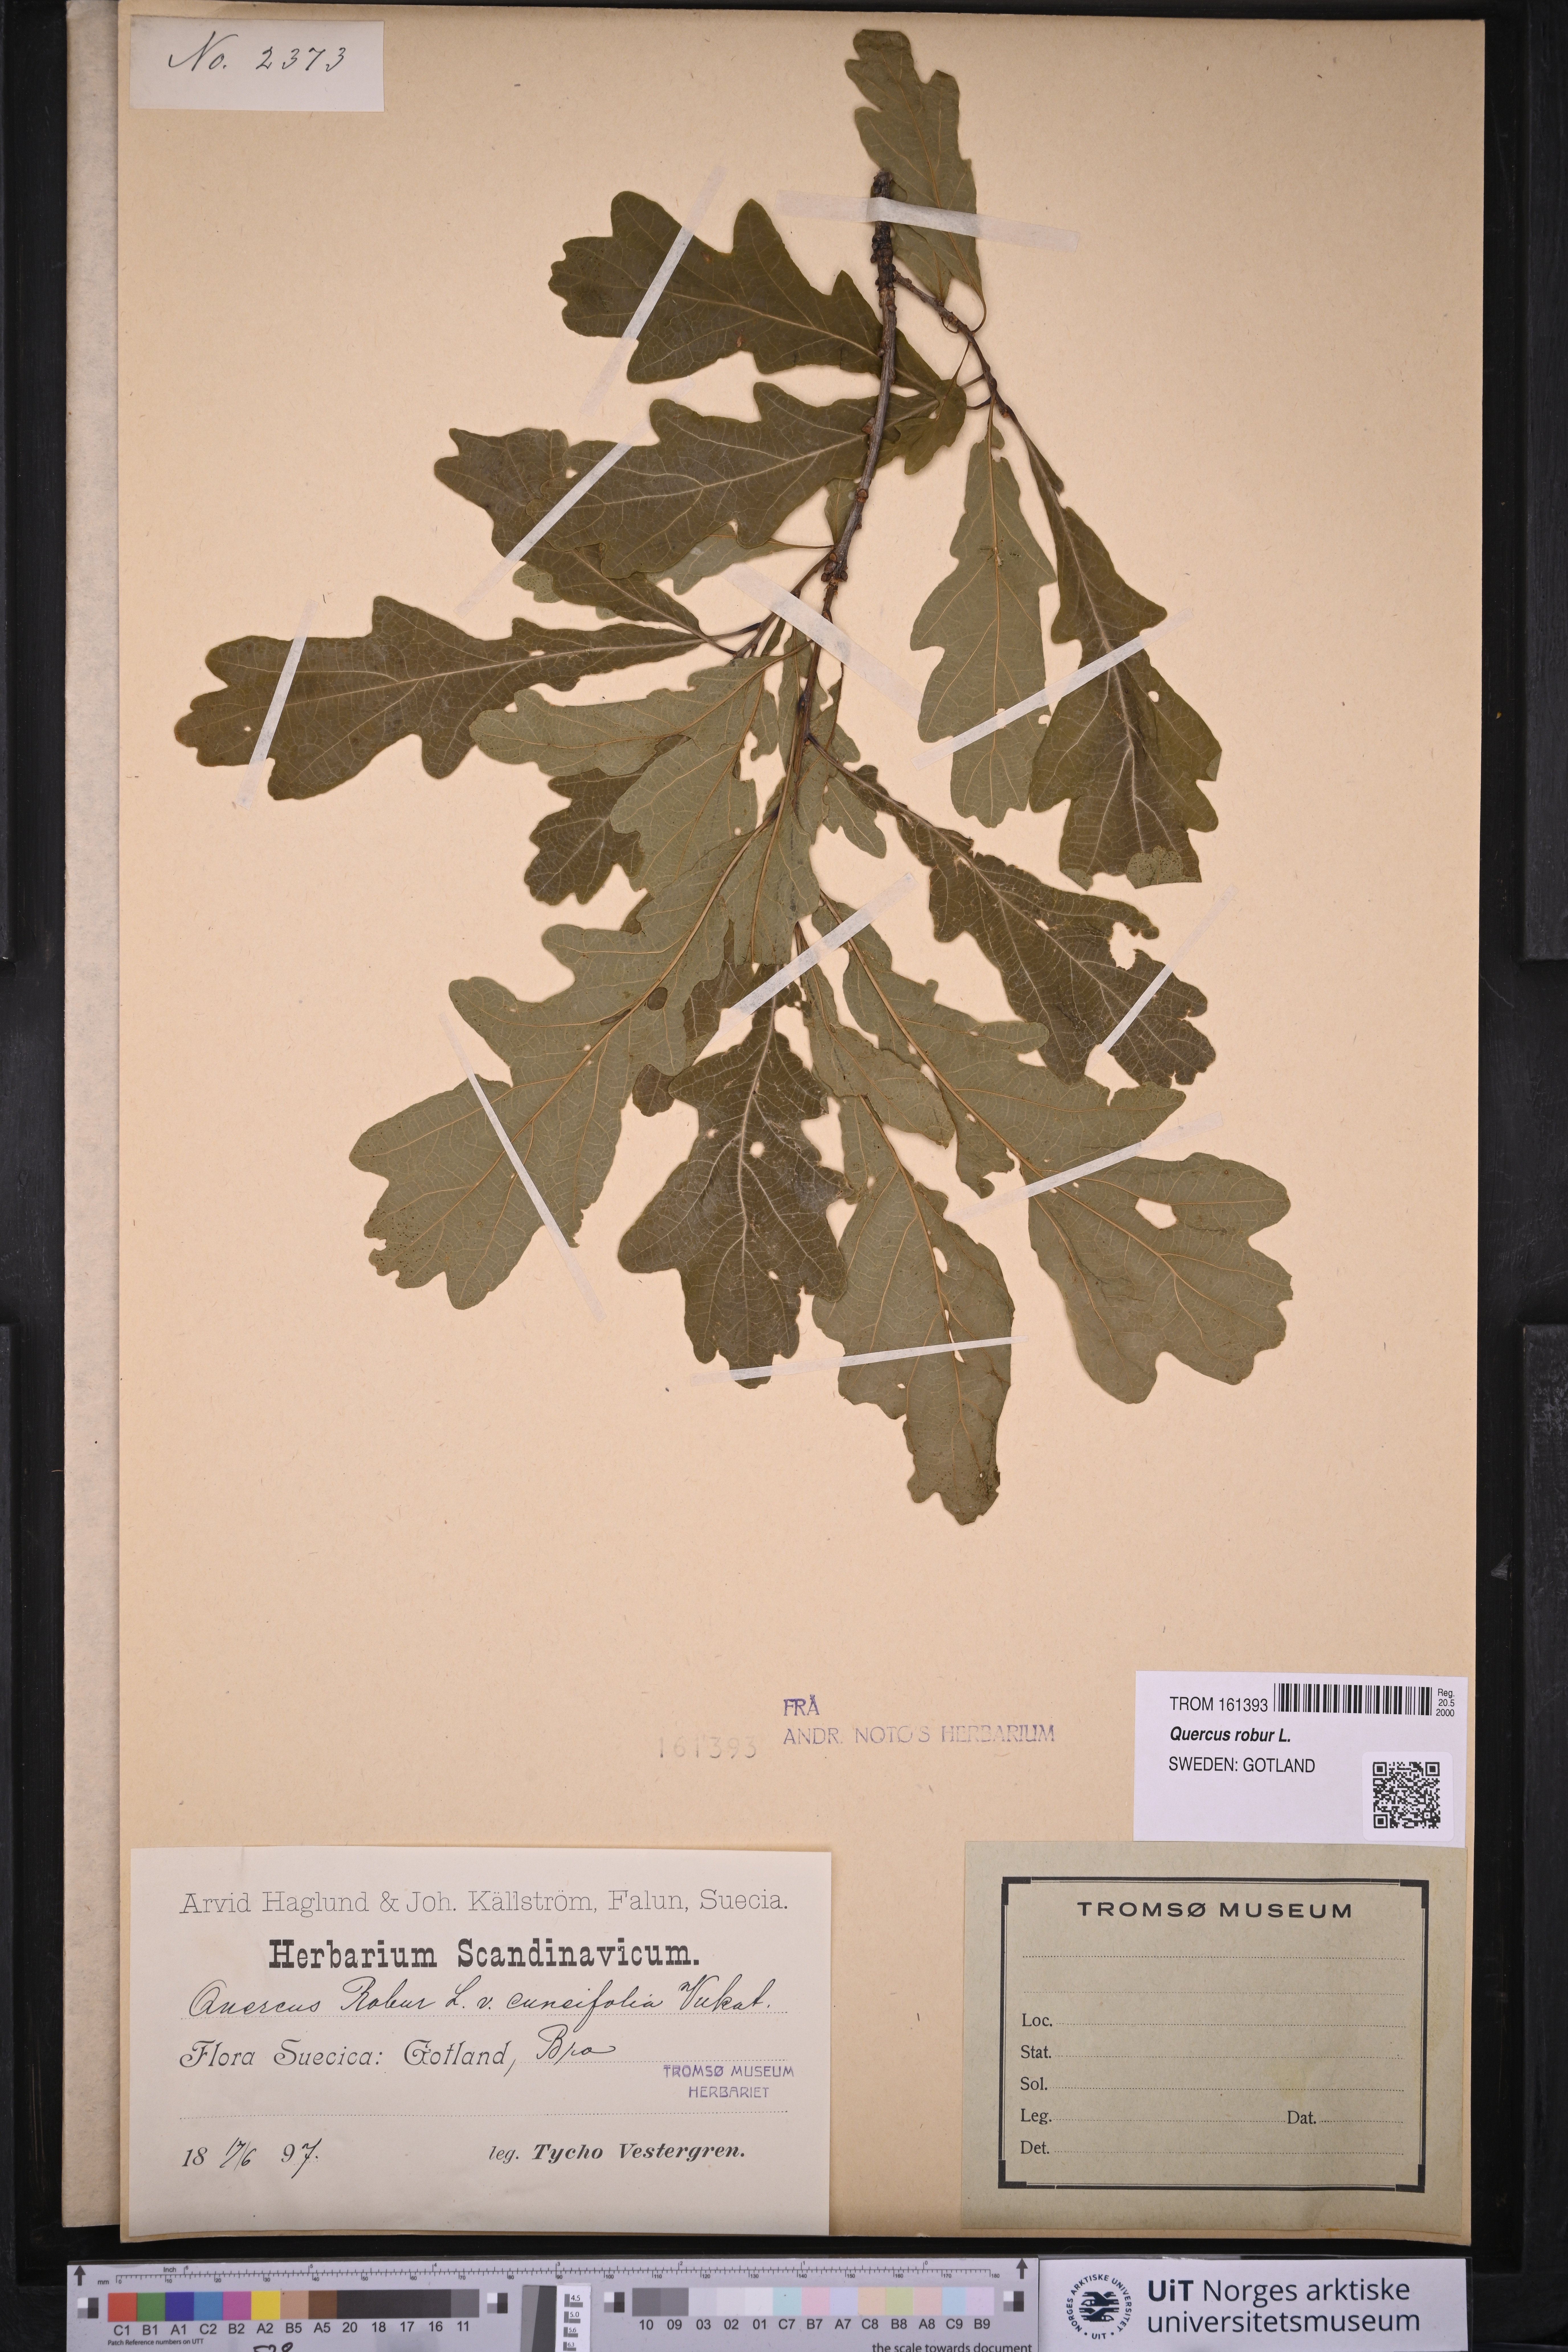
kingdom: Plantae
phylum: Tracheophyta
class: Magnoliopsida
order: Fagales
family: Fagaceae
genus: Quercus
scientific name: Quercus robur
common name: Pedunculate oak
